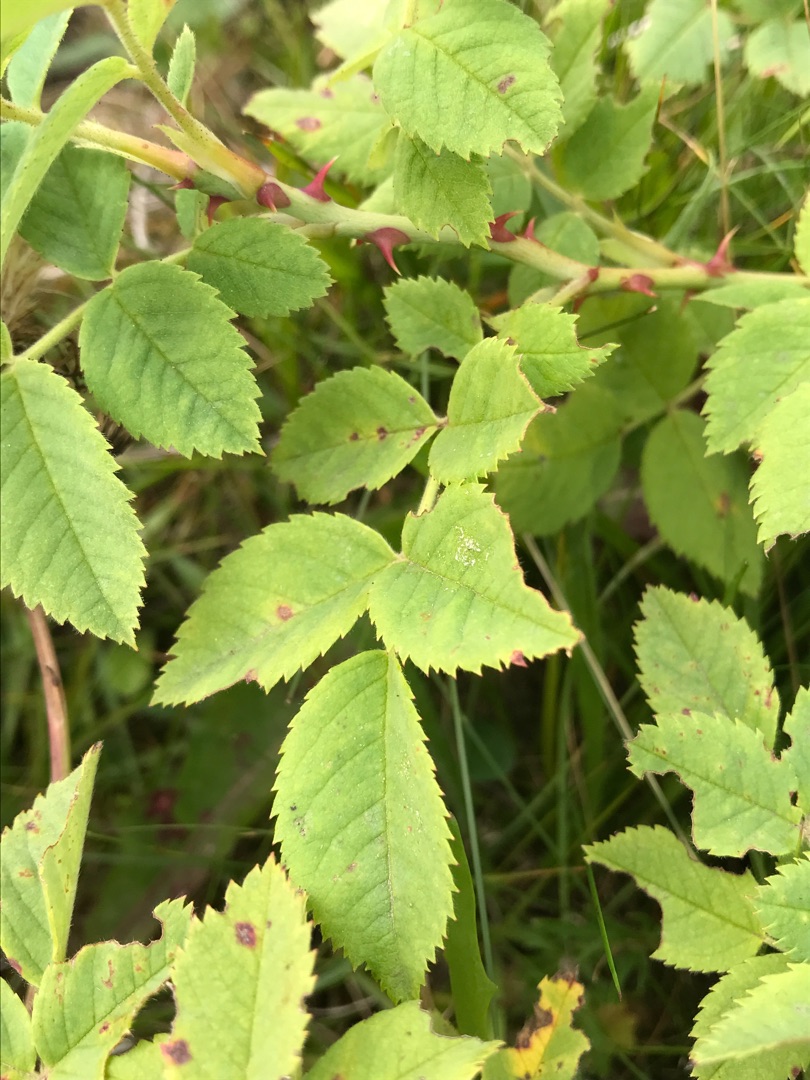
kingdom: Plantae
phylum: Tracheophyta
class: Magnoliopsida
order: Rosales
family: Rosaceae
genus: Rosa
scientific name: Rosa caesia
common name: Håret blågrøn rose
